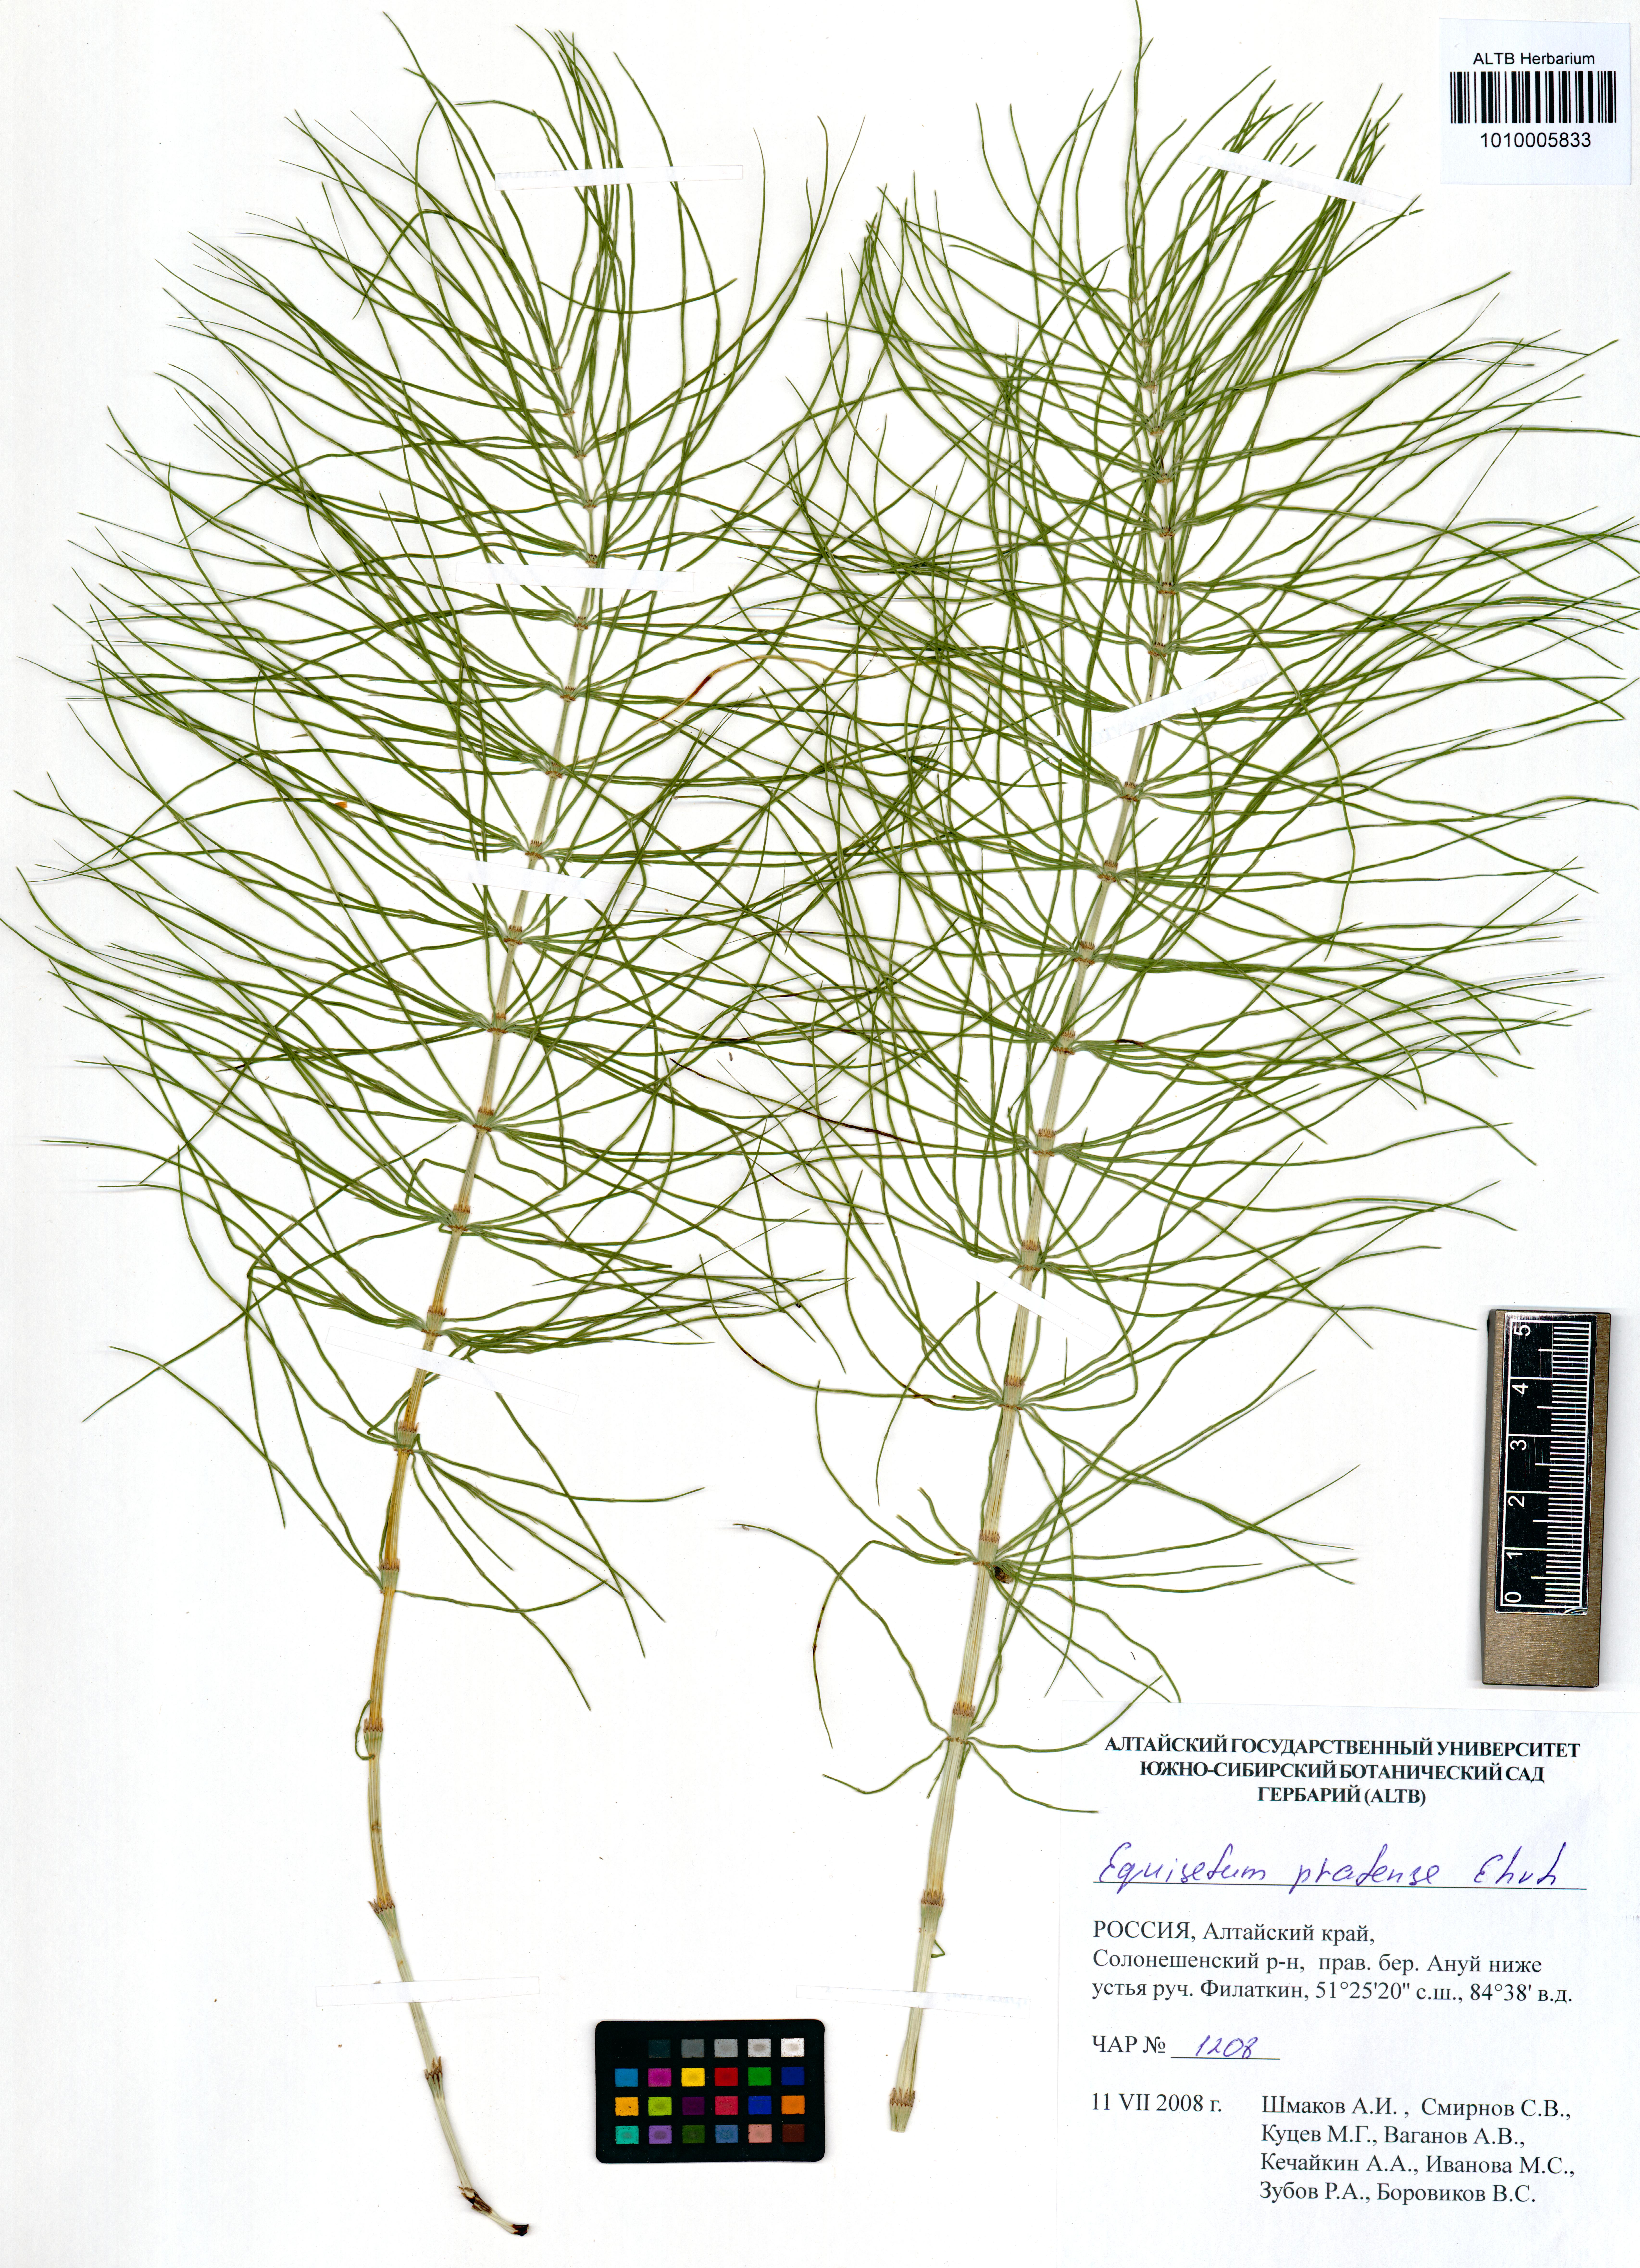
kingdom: Plantae
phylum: Tracheophyta
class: Polypodiopsida
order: Equisetales
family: Equisetaceae
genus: Equisetum
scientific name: Equisetum pratense
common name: Meadow horsetail
